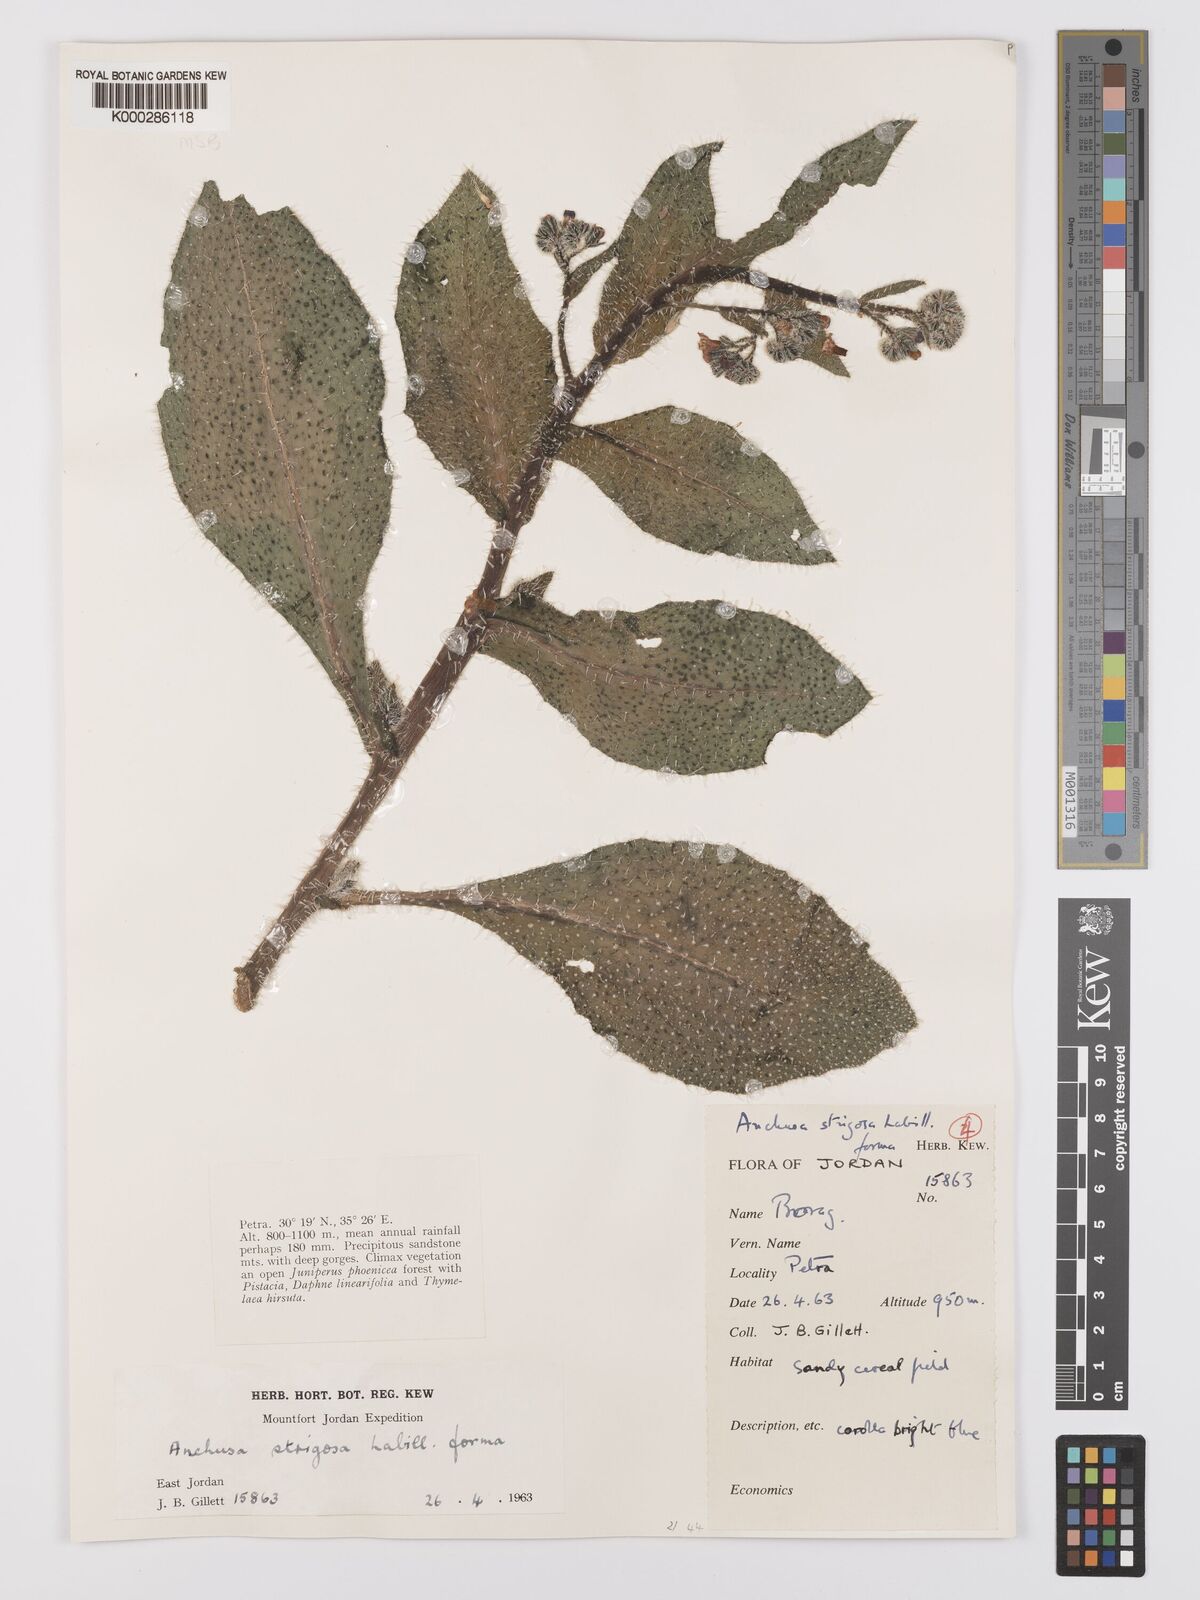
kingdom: Plantae
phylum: Tracheophyta
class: Magnoliopsida
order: Boraginales
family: Boraginaceae
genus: Anchusa
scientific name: Anchusa strigosa
